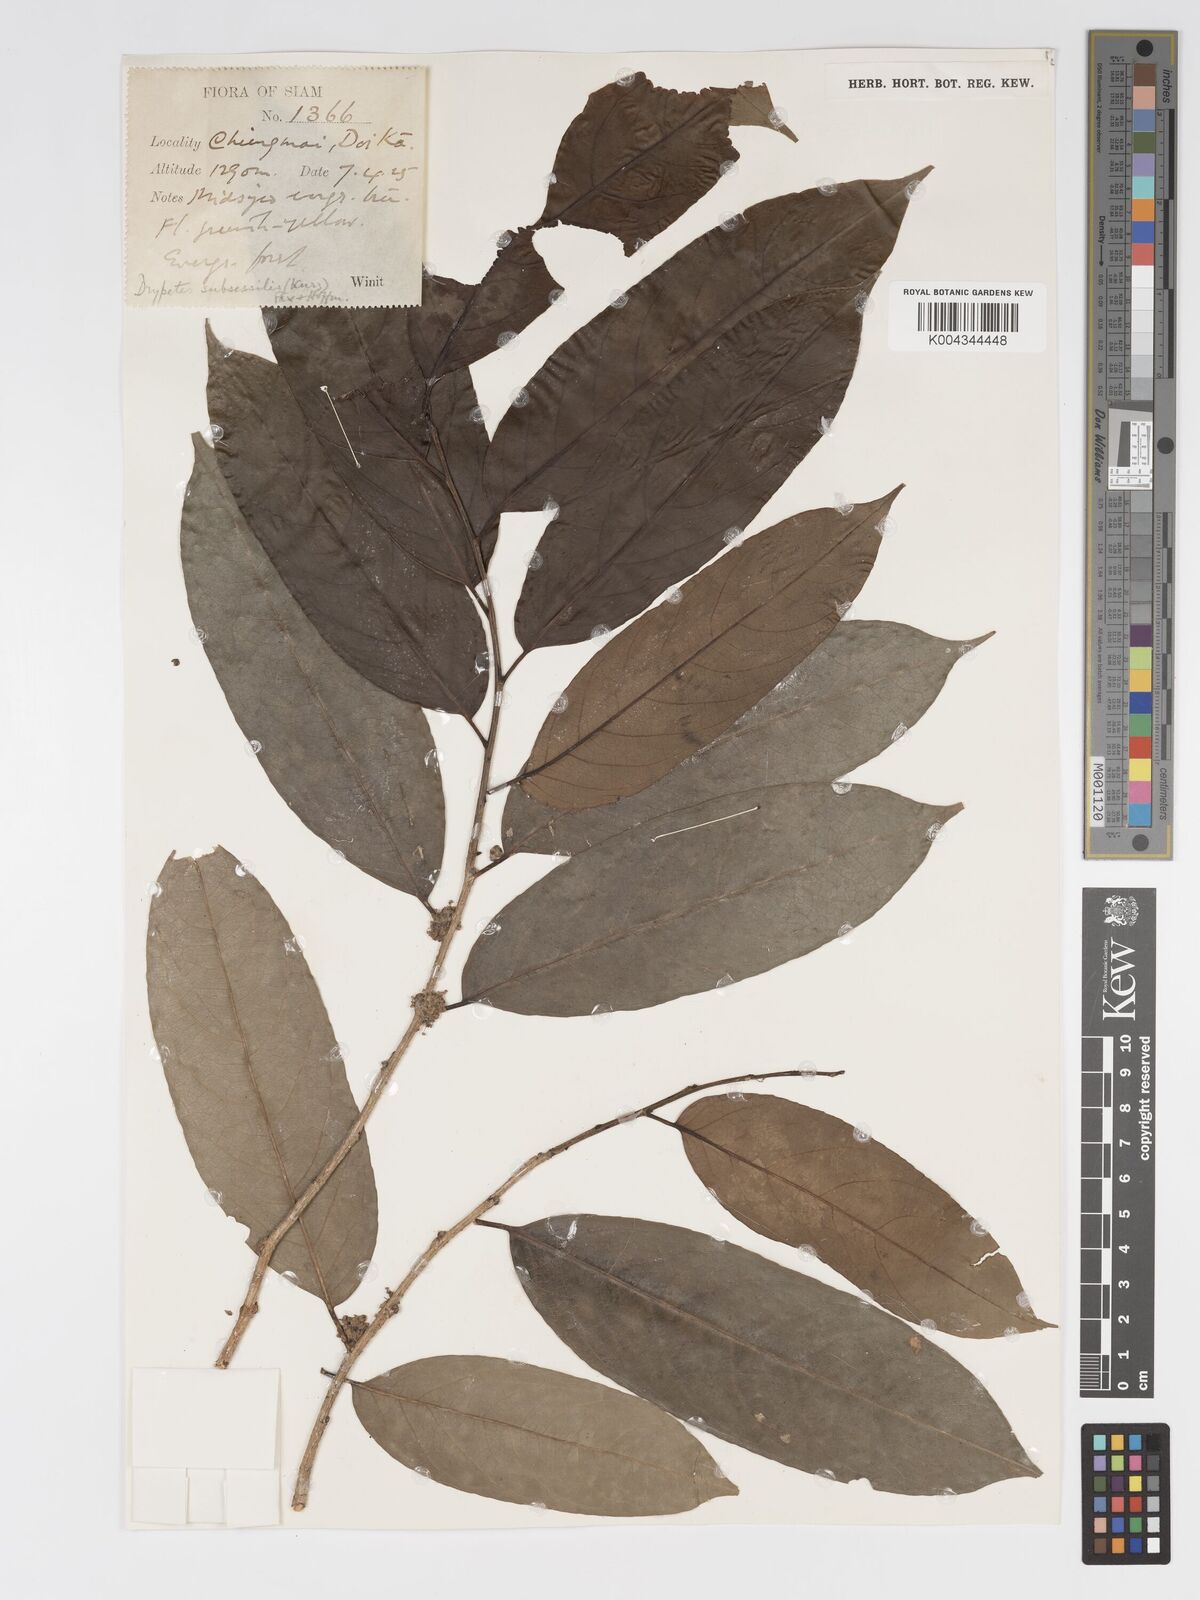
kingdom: Plantae
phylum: Tracheophyta
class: Magnoliopsida
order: Malpighiales
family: Putranjivaceae
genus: Drypetes
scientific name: Drypetes subsessilis
